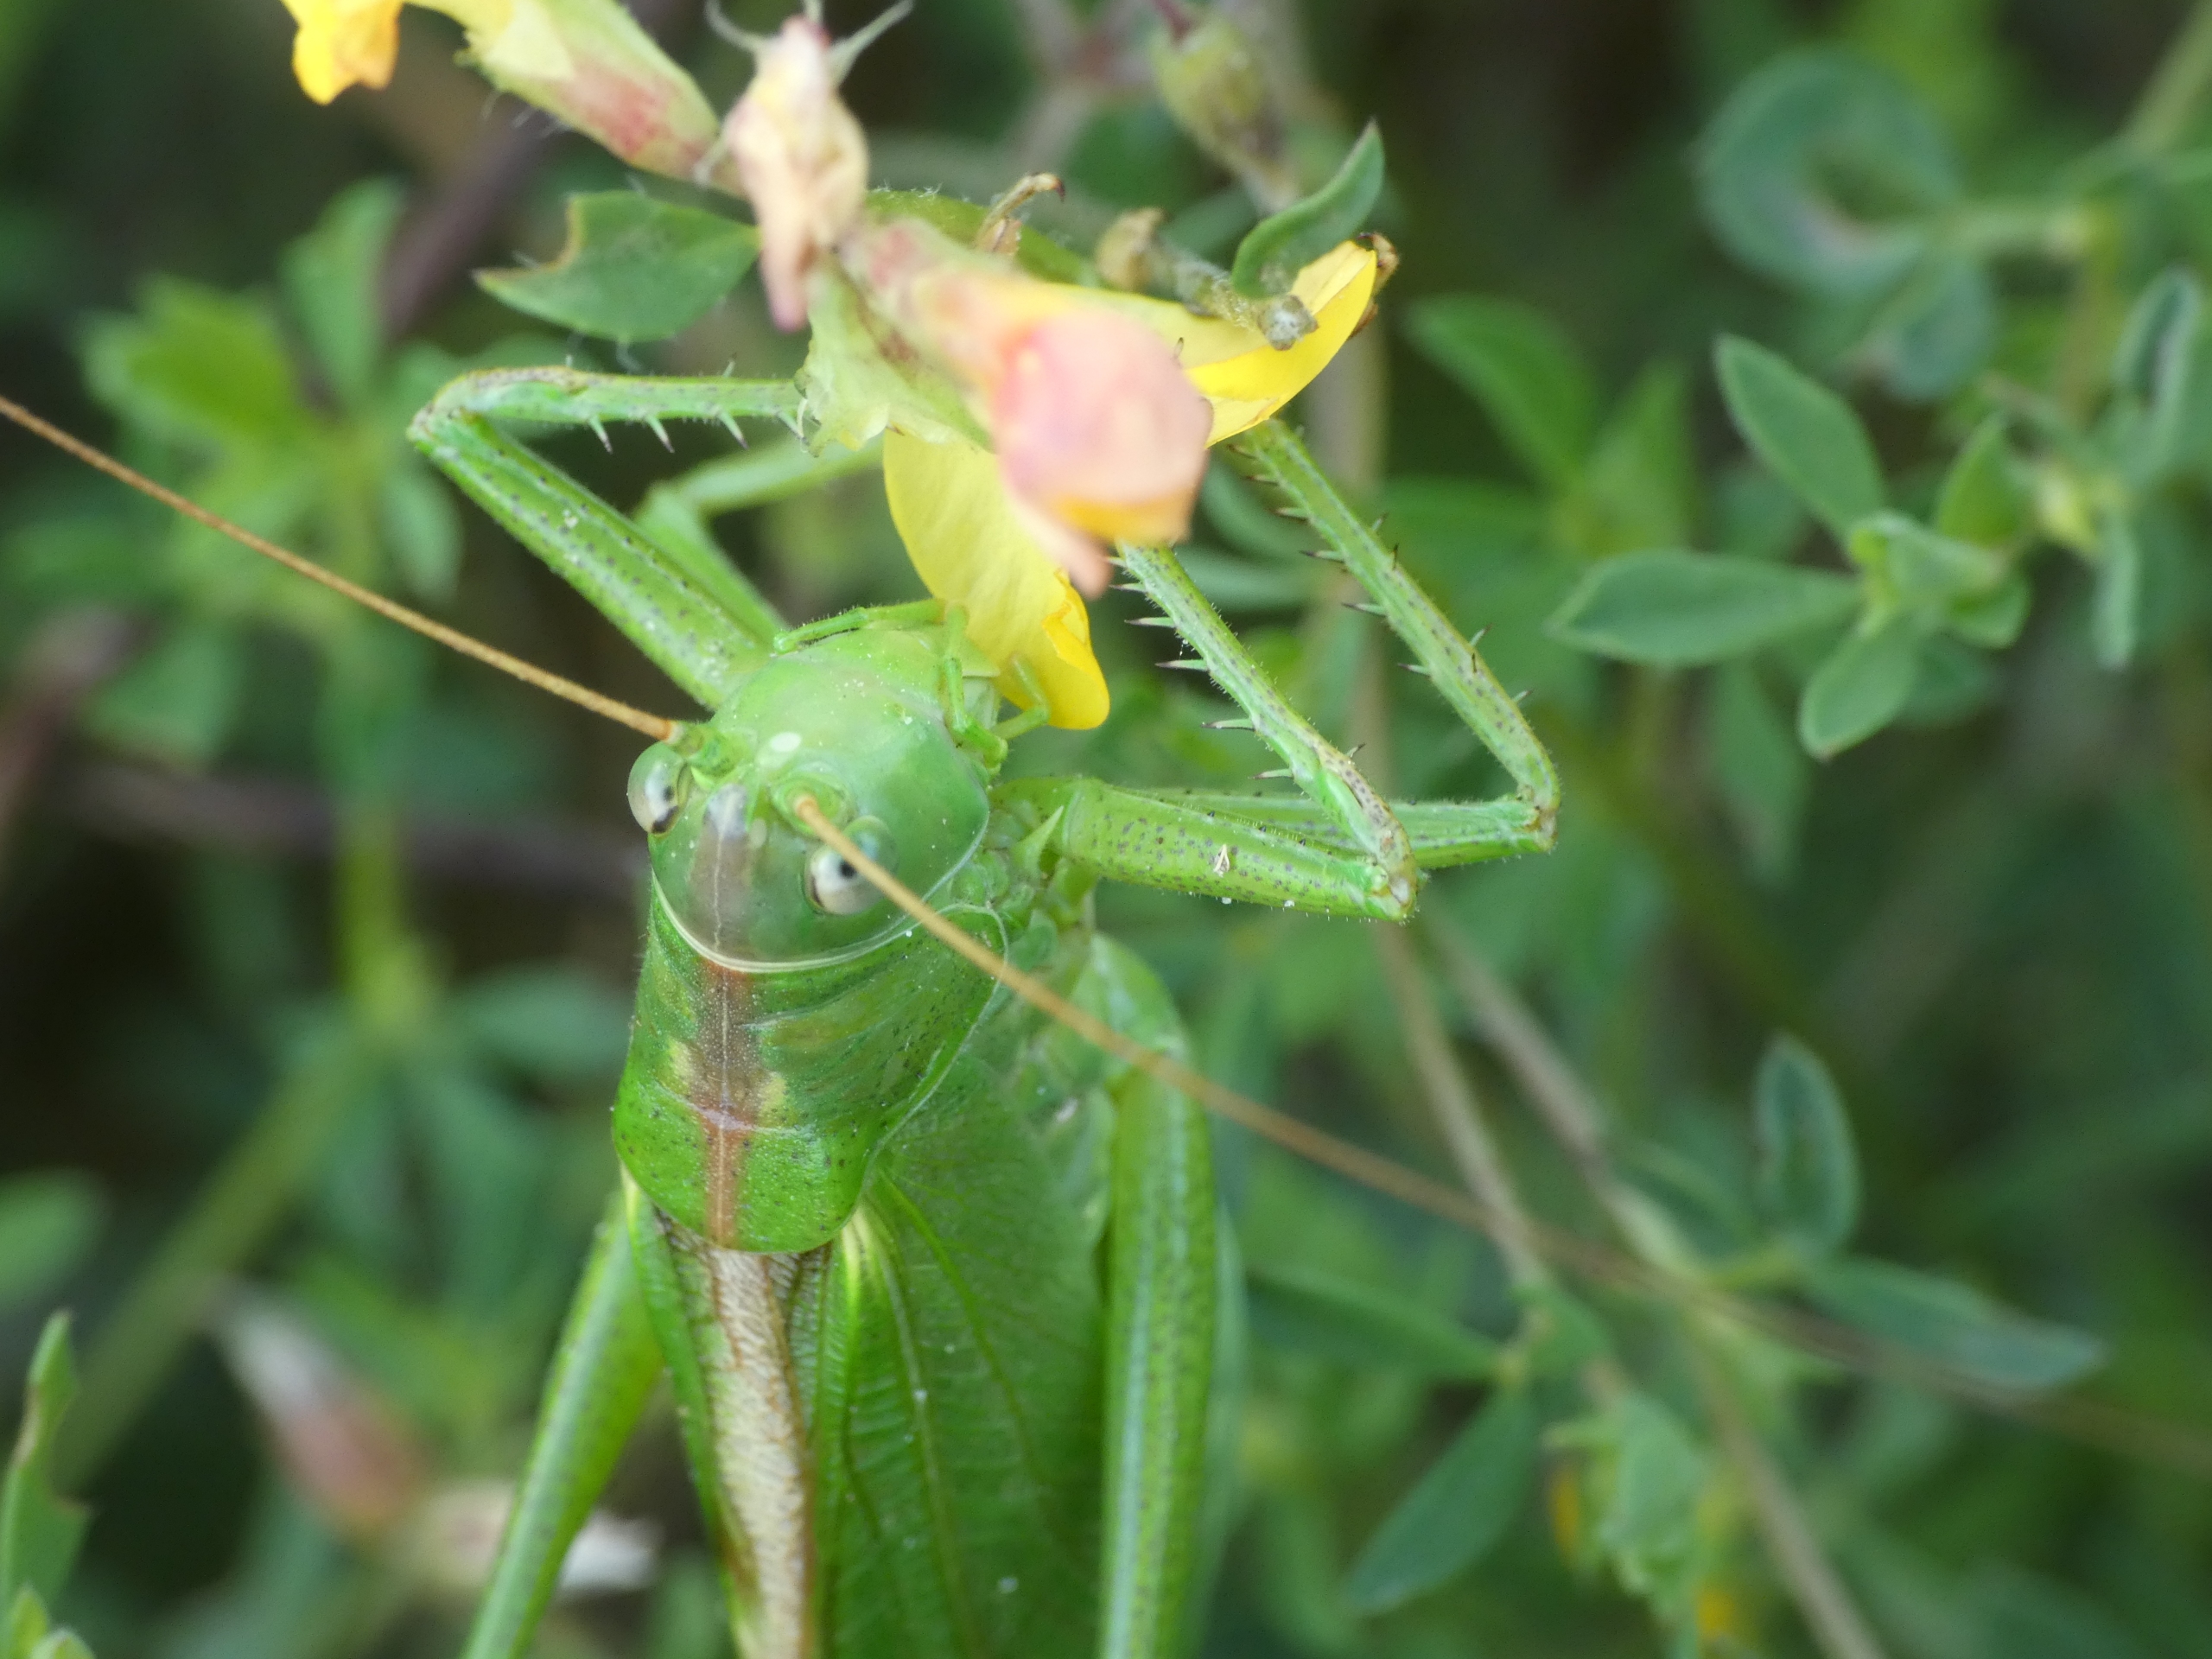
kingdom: Animalia
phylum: Arthropoda
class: Insecta
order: Orthoptera
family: Tettigoniidae
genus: Tettigonia
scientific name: Tettigonia viridissima
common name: Stor grøn løvgræshoppe
